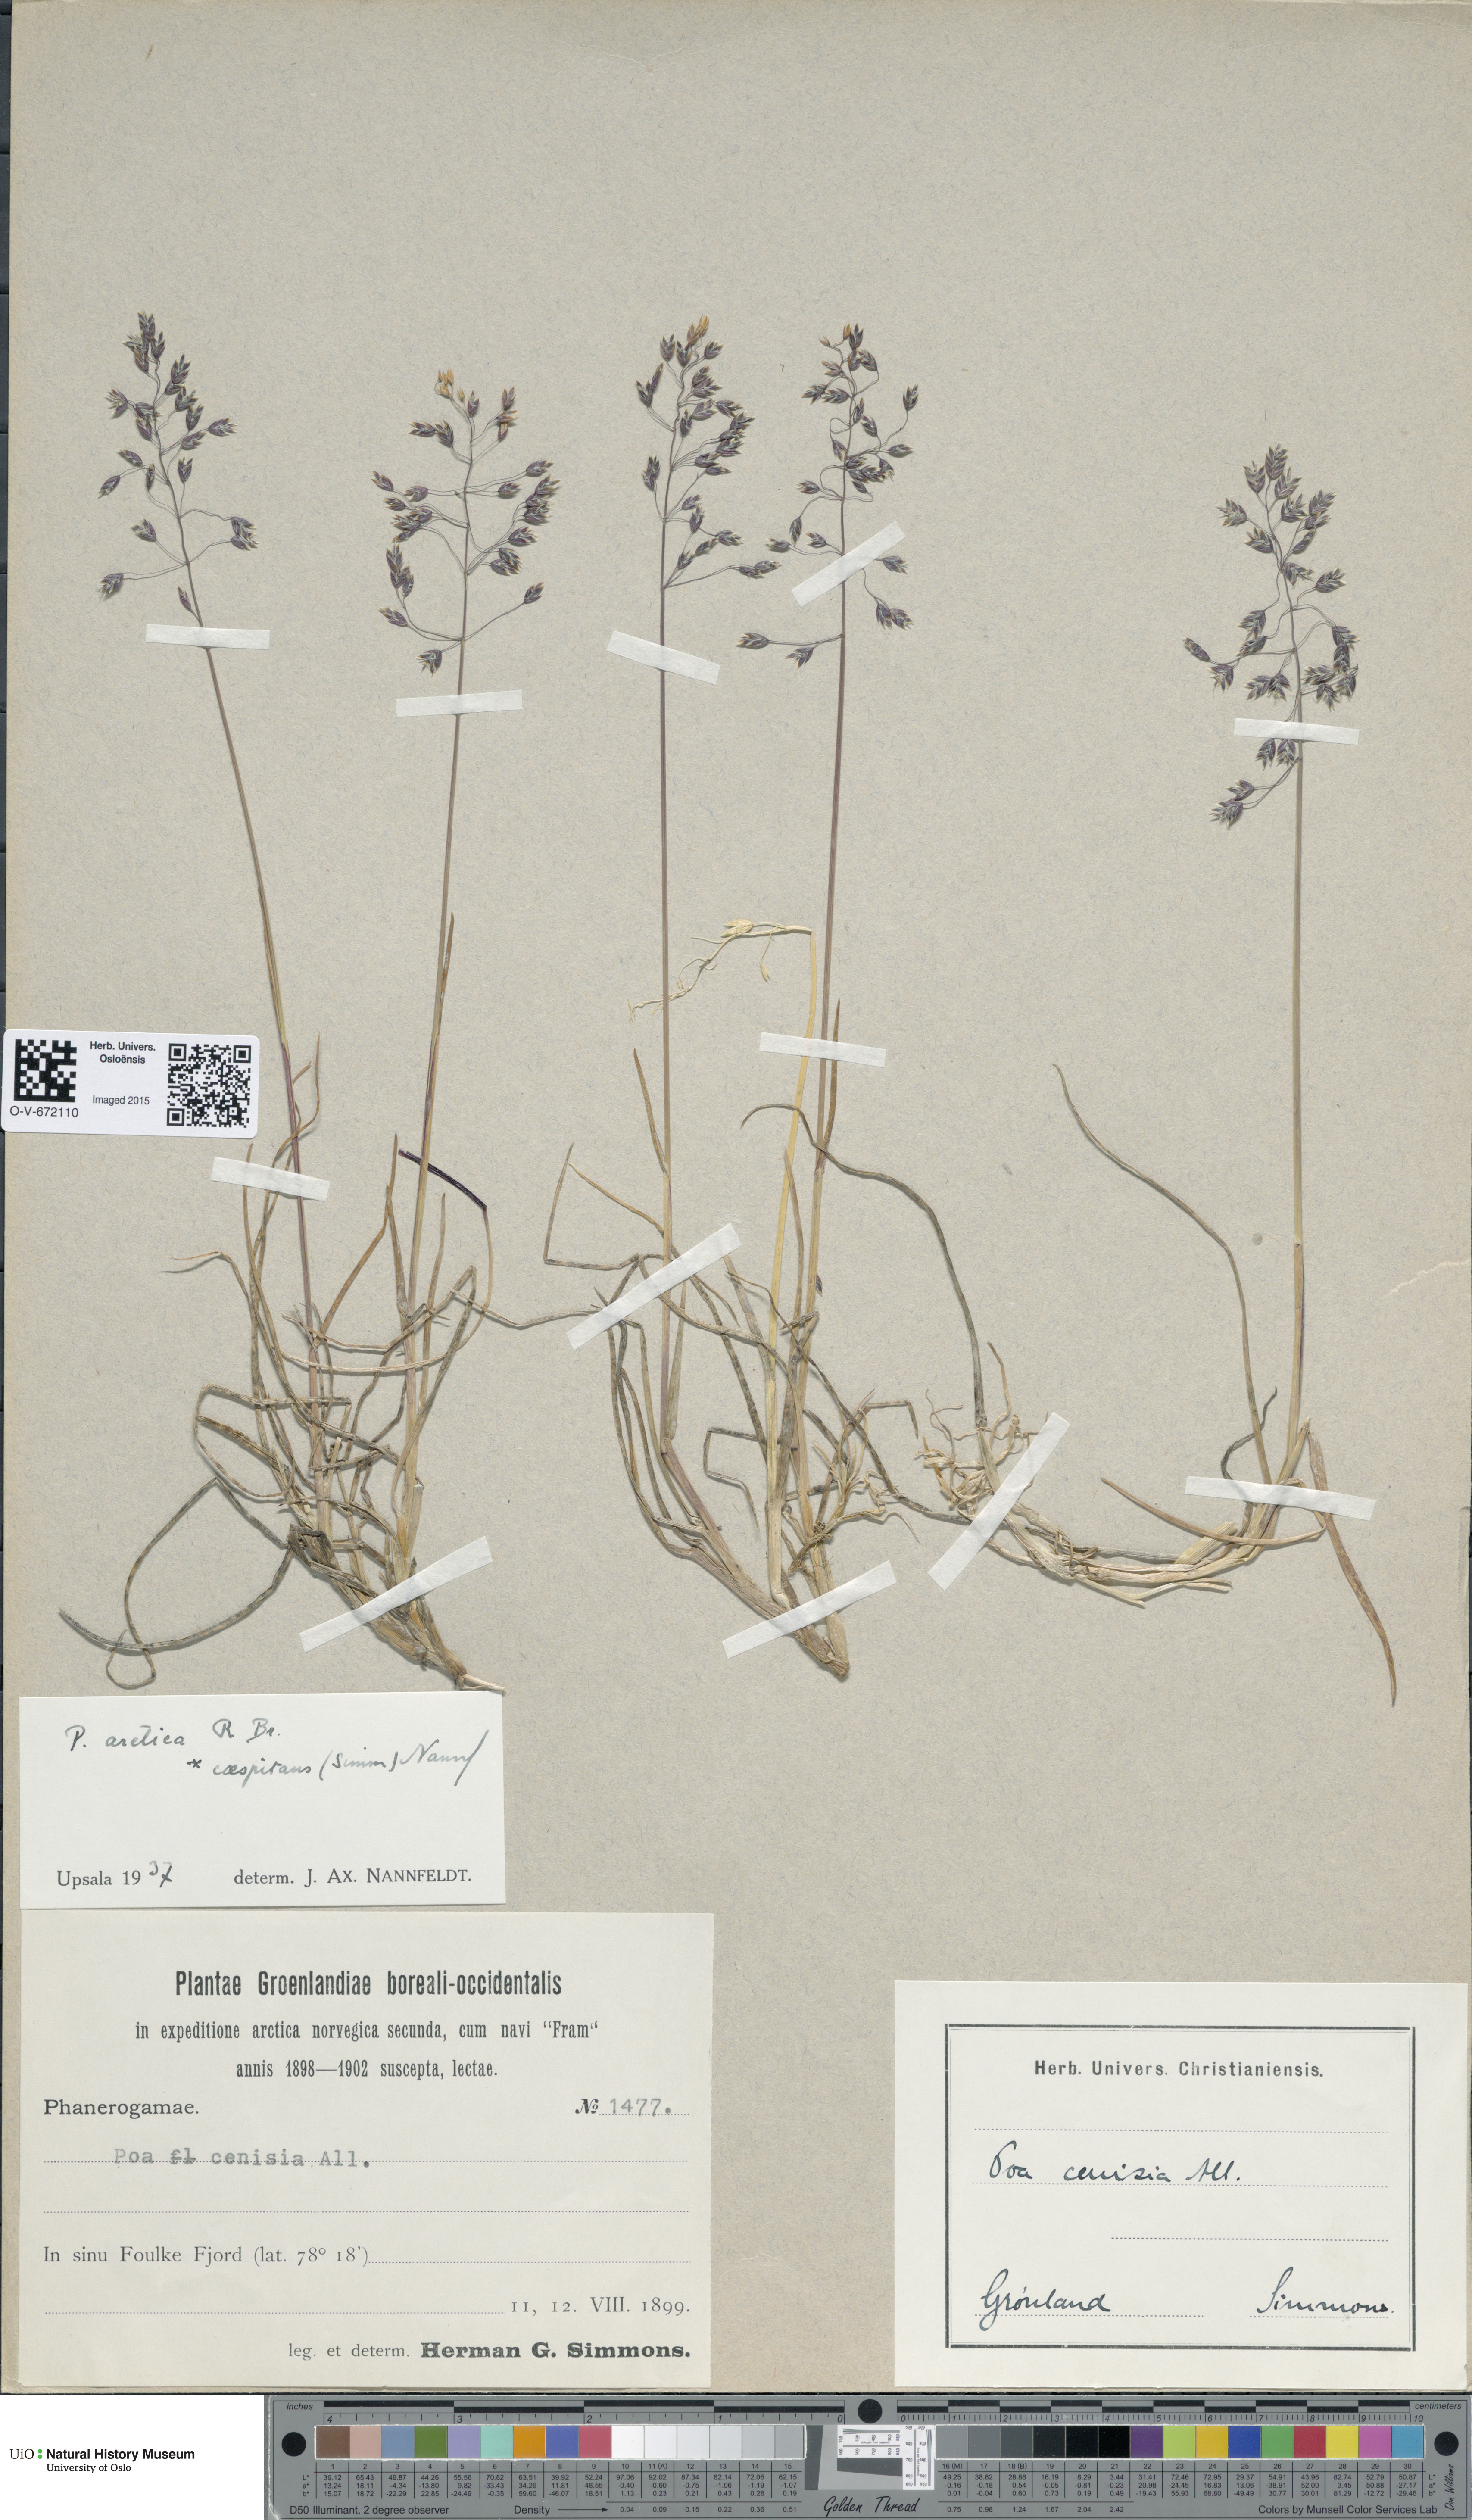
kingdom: Plantae
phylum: Tracheophyta
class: Liliopsida
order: Poales
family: Poaceae
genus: Poa
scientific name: Poa arctica
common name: Arctic bluegrass
